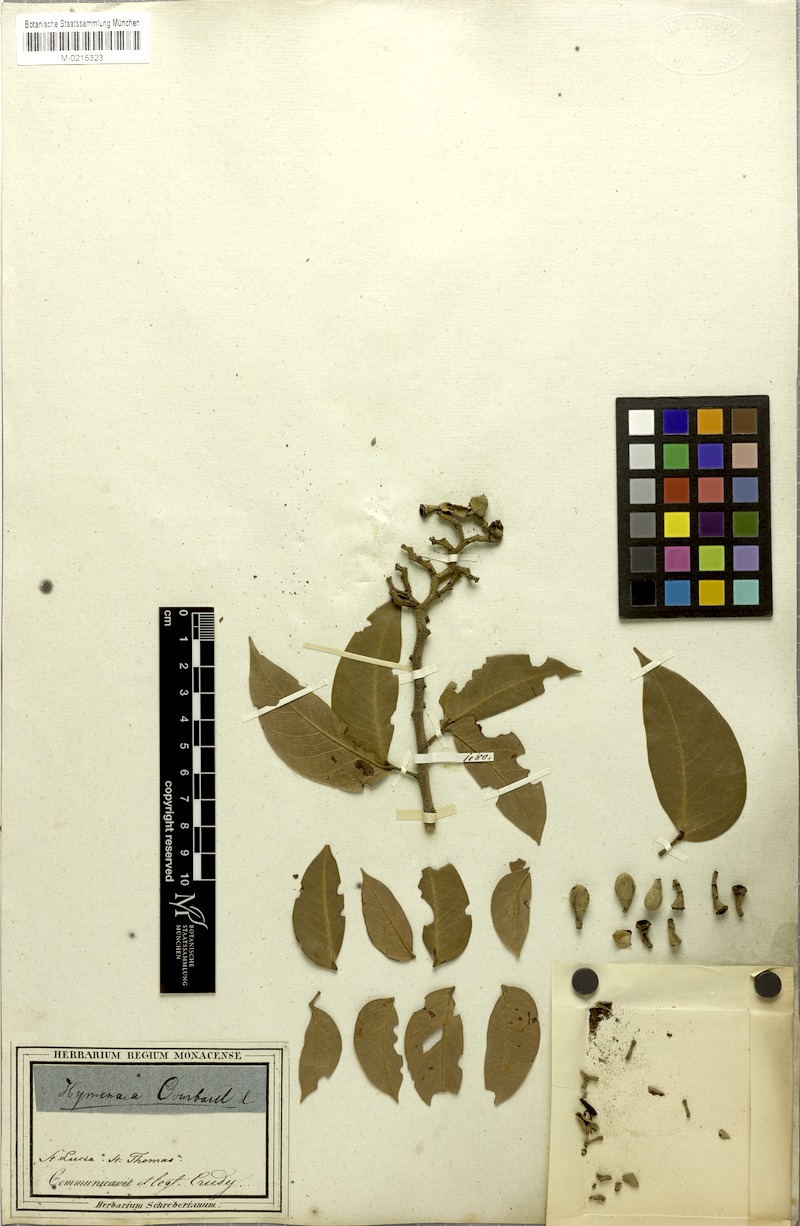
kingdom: Plantae
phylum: Tracheophyta
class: Magnoliopsida
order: Fabales
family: Fabaceae
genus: Hymenaea
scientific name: Hymenaea courbaril
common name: Brazilian copal
